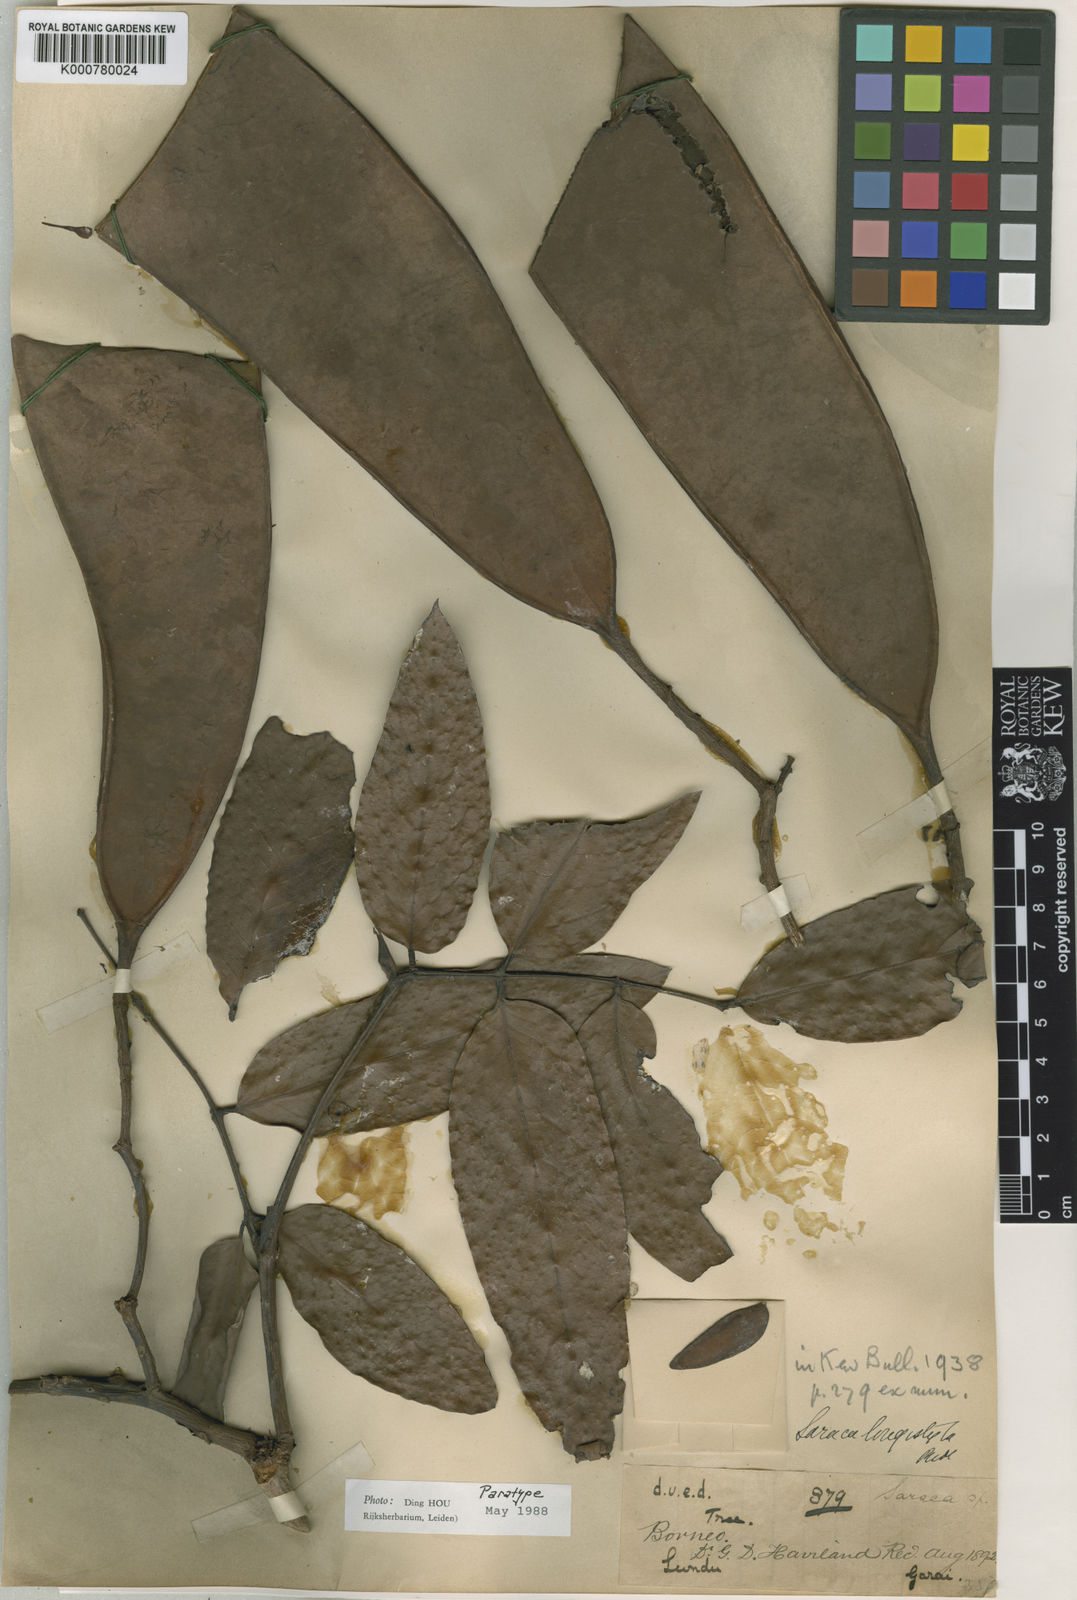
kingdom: Plantae
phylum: Tracheophyta
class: Magnoliopsida
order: Fabales
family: Fabaceae
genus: Saraca
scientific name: Saraca declinata
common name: Red saraca
